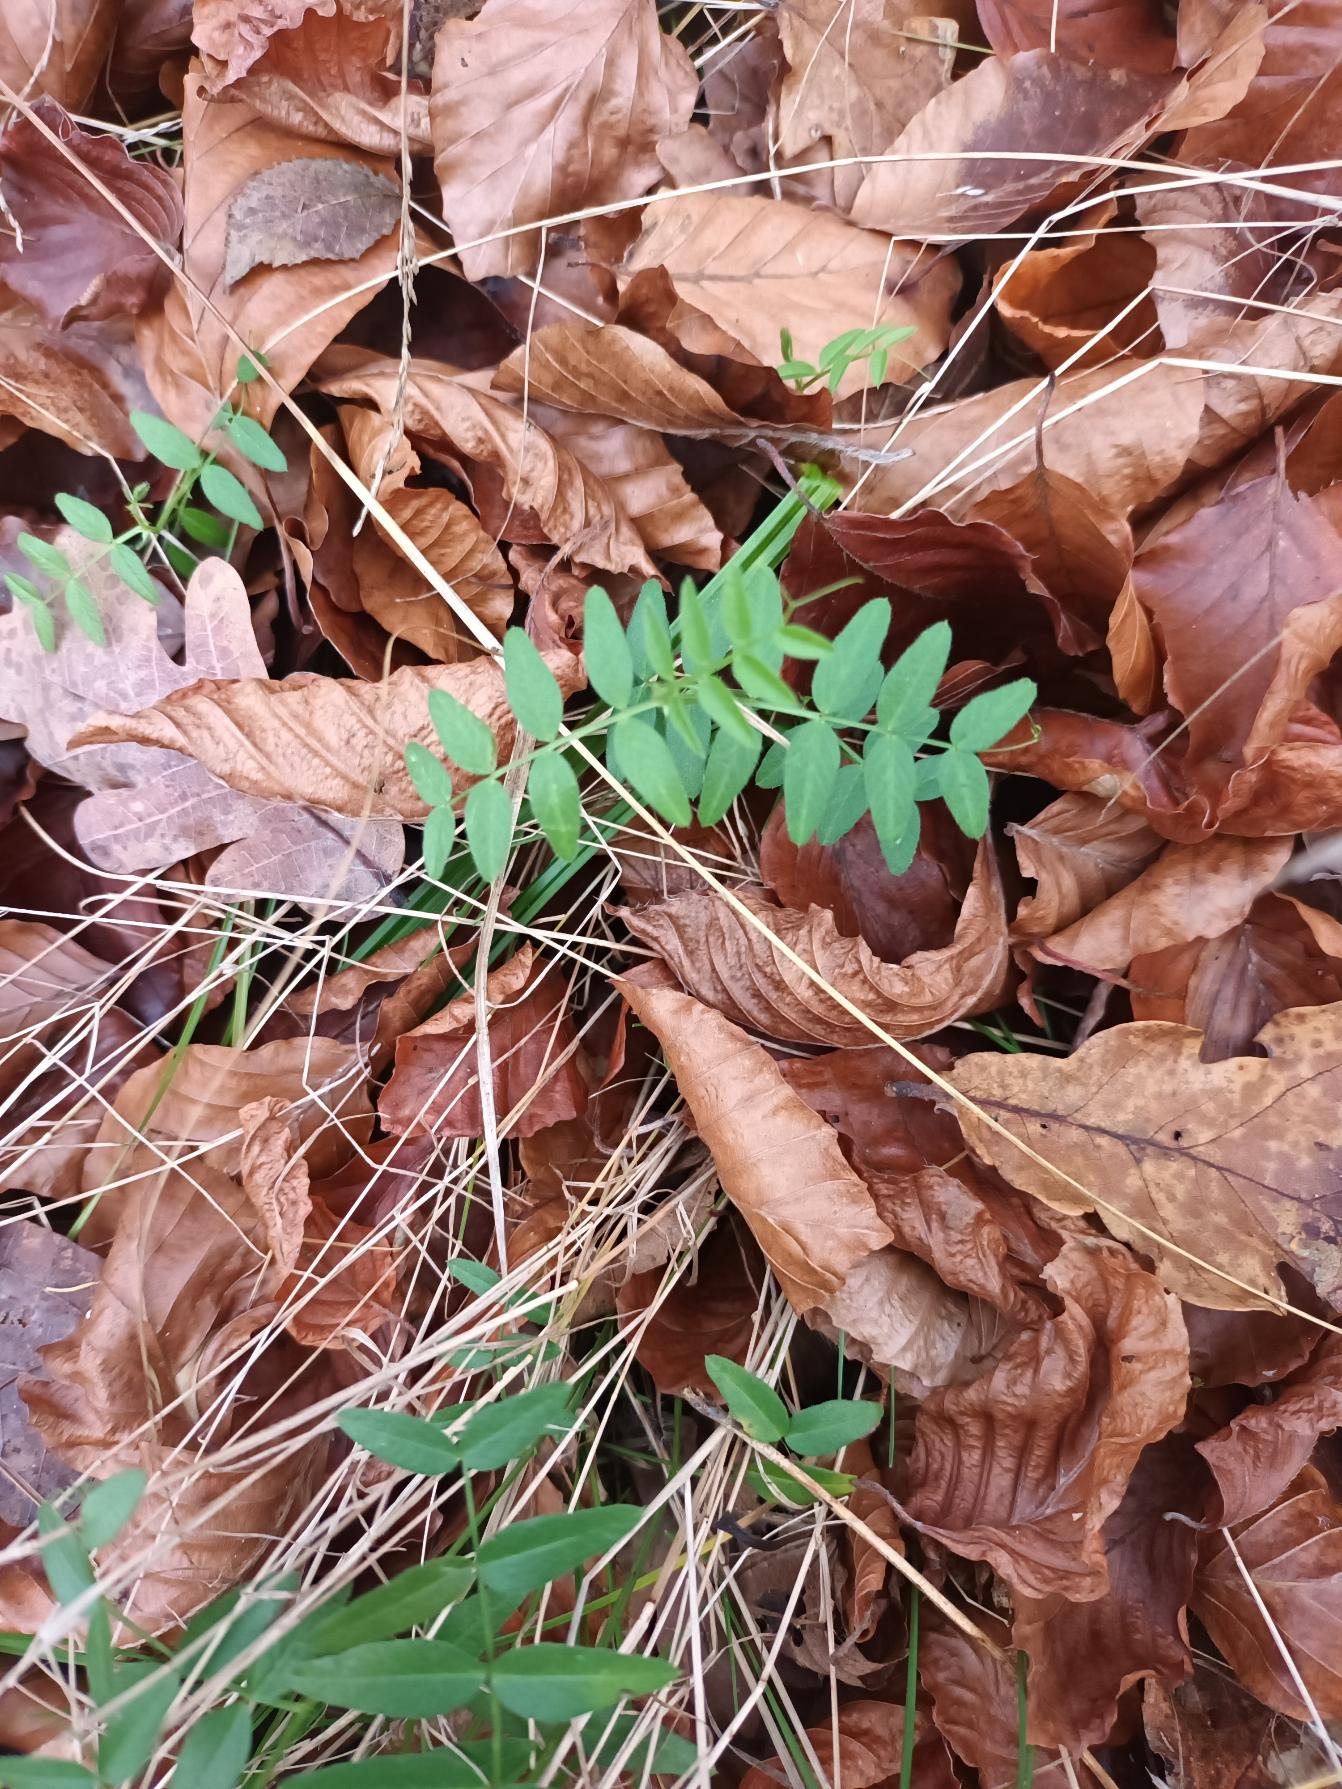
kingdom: Plantae
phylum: Tracheophyta
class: Magnoliopsida
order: Fabales
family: Fabaceae
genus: Vicia
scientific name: Vicia sepium
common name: Gærde-vikke
